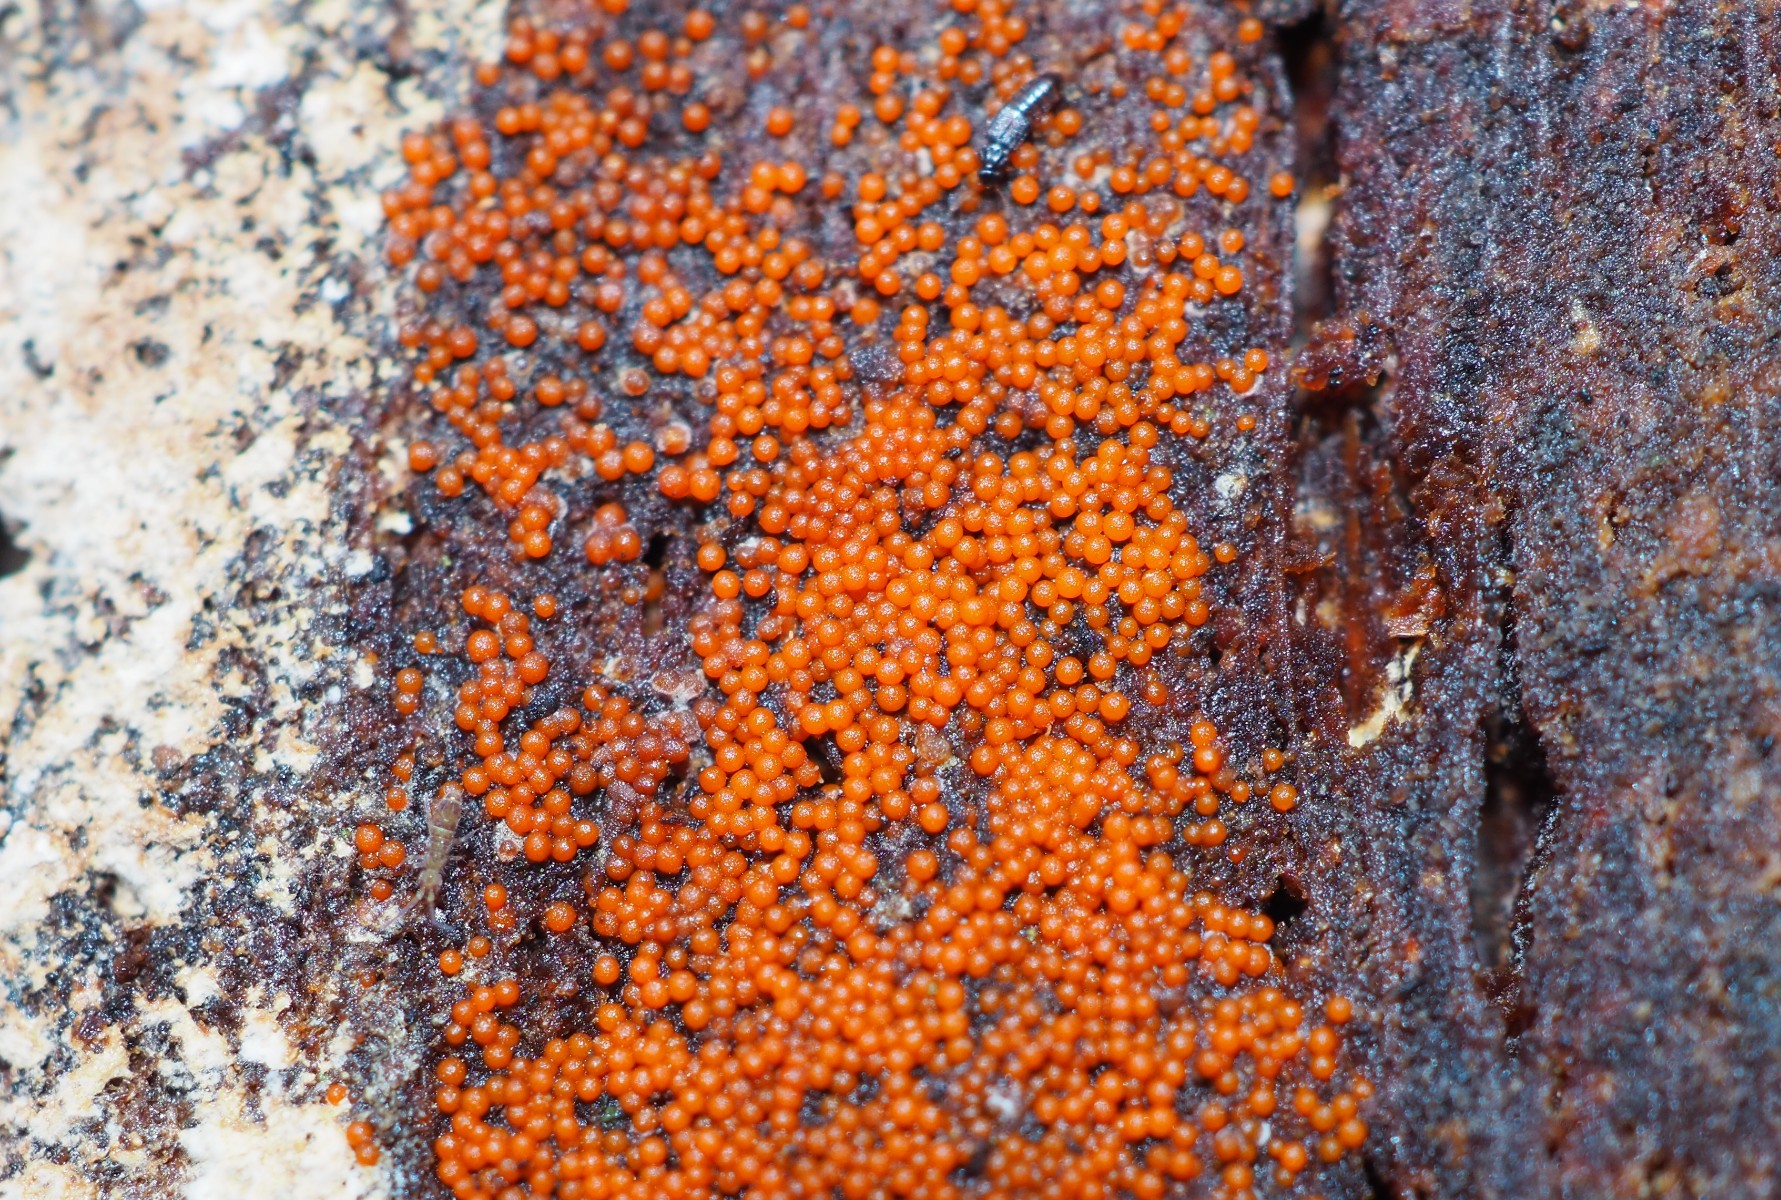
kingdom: Fungi
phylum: Ascomycota
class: Sordariomycetes
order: Hypocreales
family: Nectriaceae
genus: Hydropisphaera
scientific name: Hydropisphaera peziza
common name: skålformet gyldenkerne
